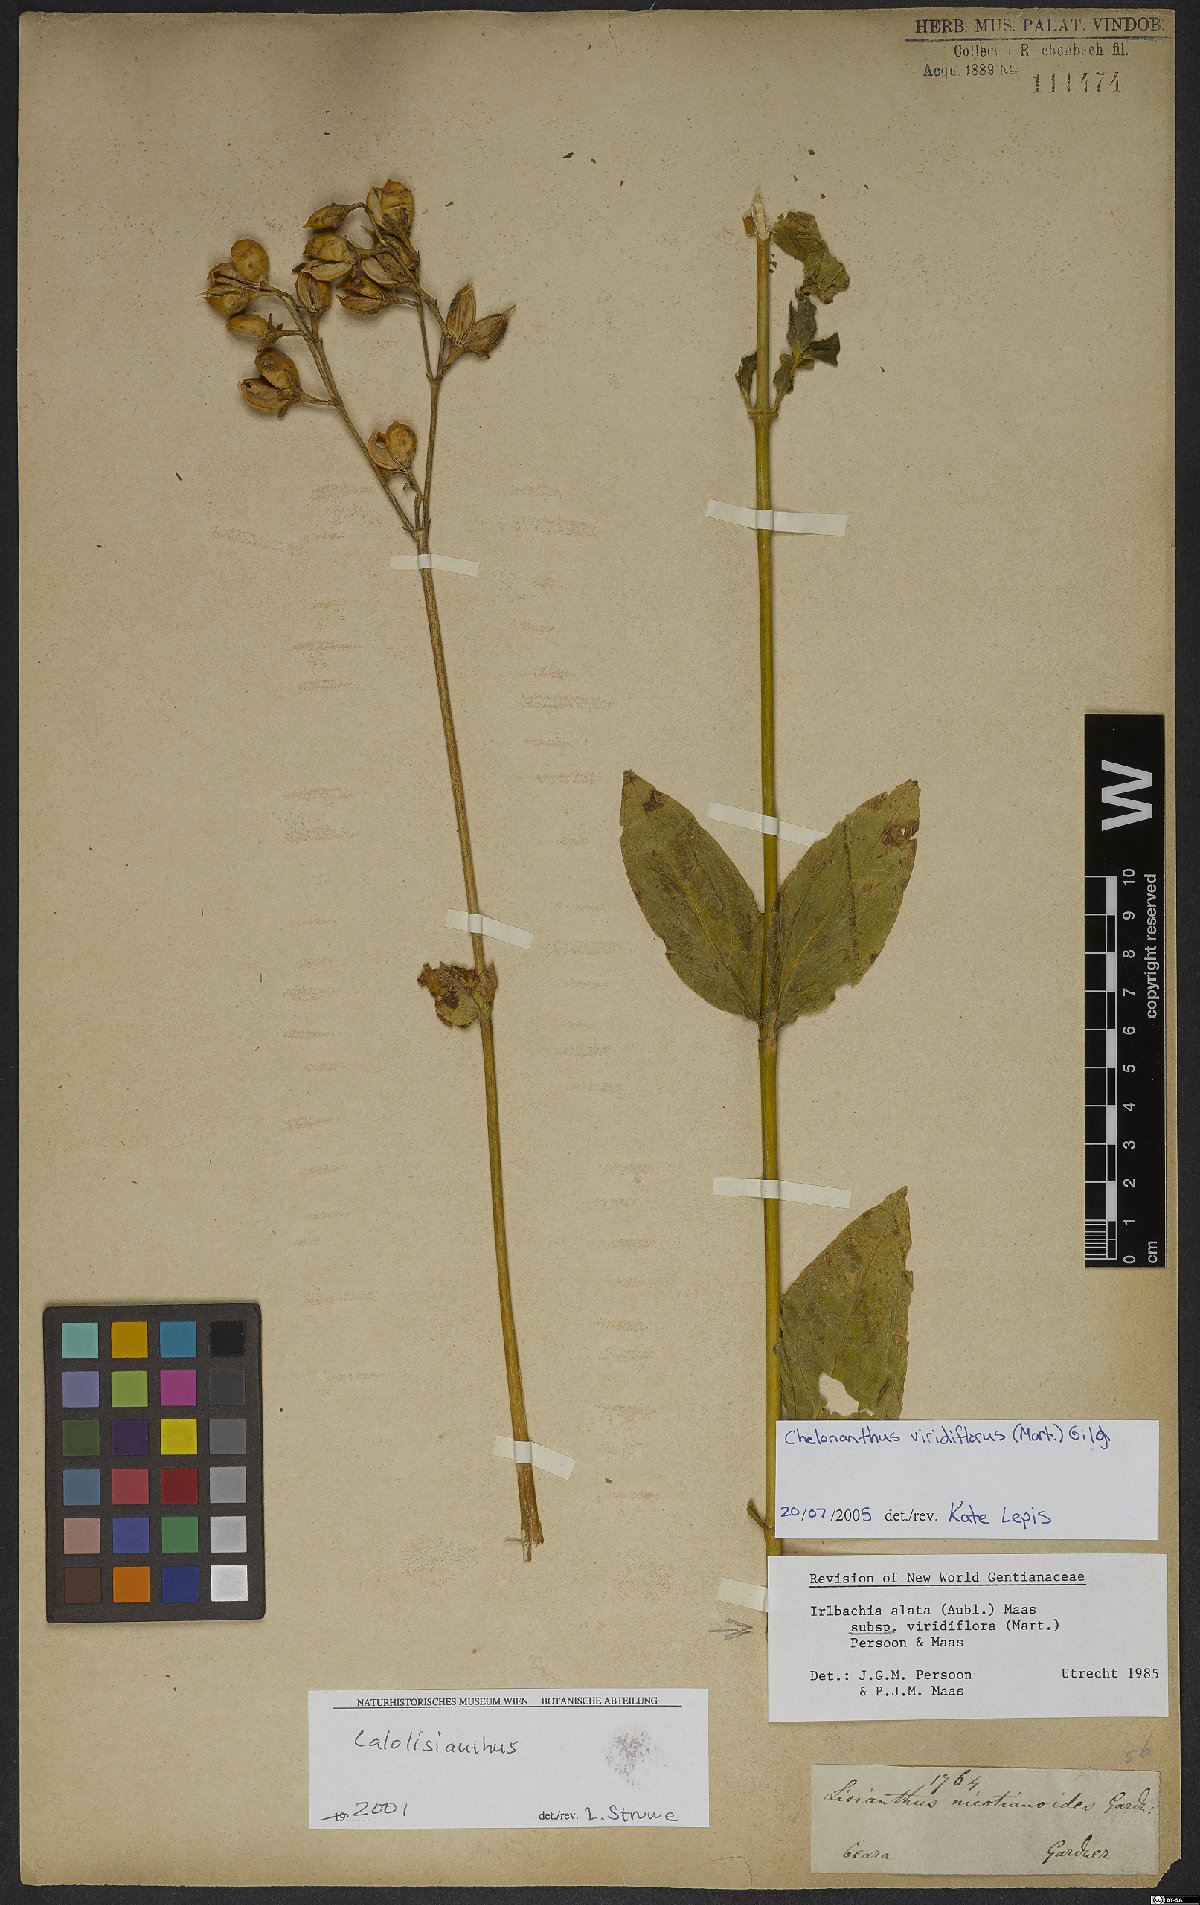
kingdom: Plantae
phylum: Tracheophyta
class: Magnoliopsida
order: Gentianales
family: Gentianaceae
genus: Chelonanthus
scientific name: Chelonanthus viridiflorus
